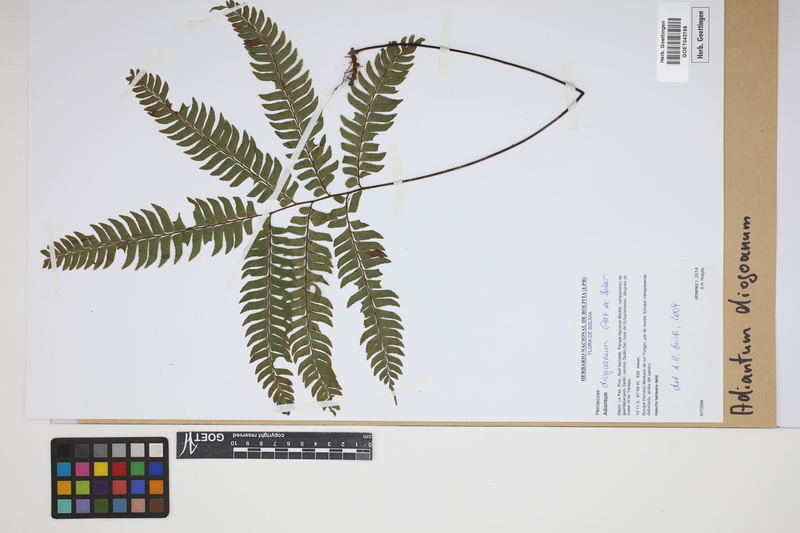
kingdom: Plantae
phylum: Tracheophyta
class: Polypodiopsida
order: Polypodiales
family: Pteridaceae
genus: Adiantum
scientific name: Adiantum diogoanum
